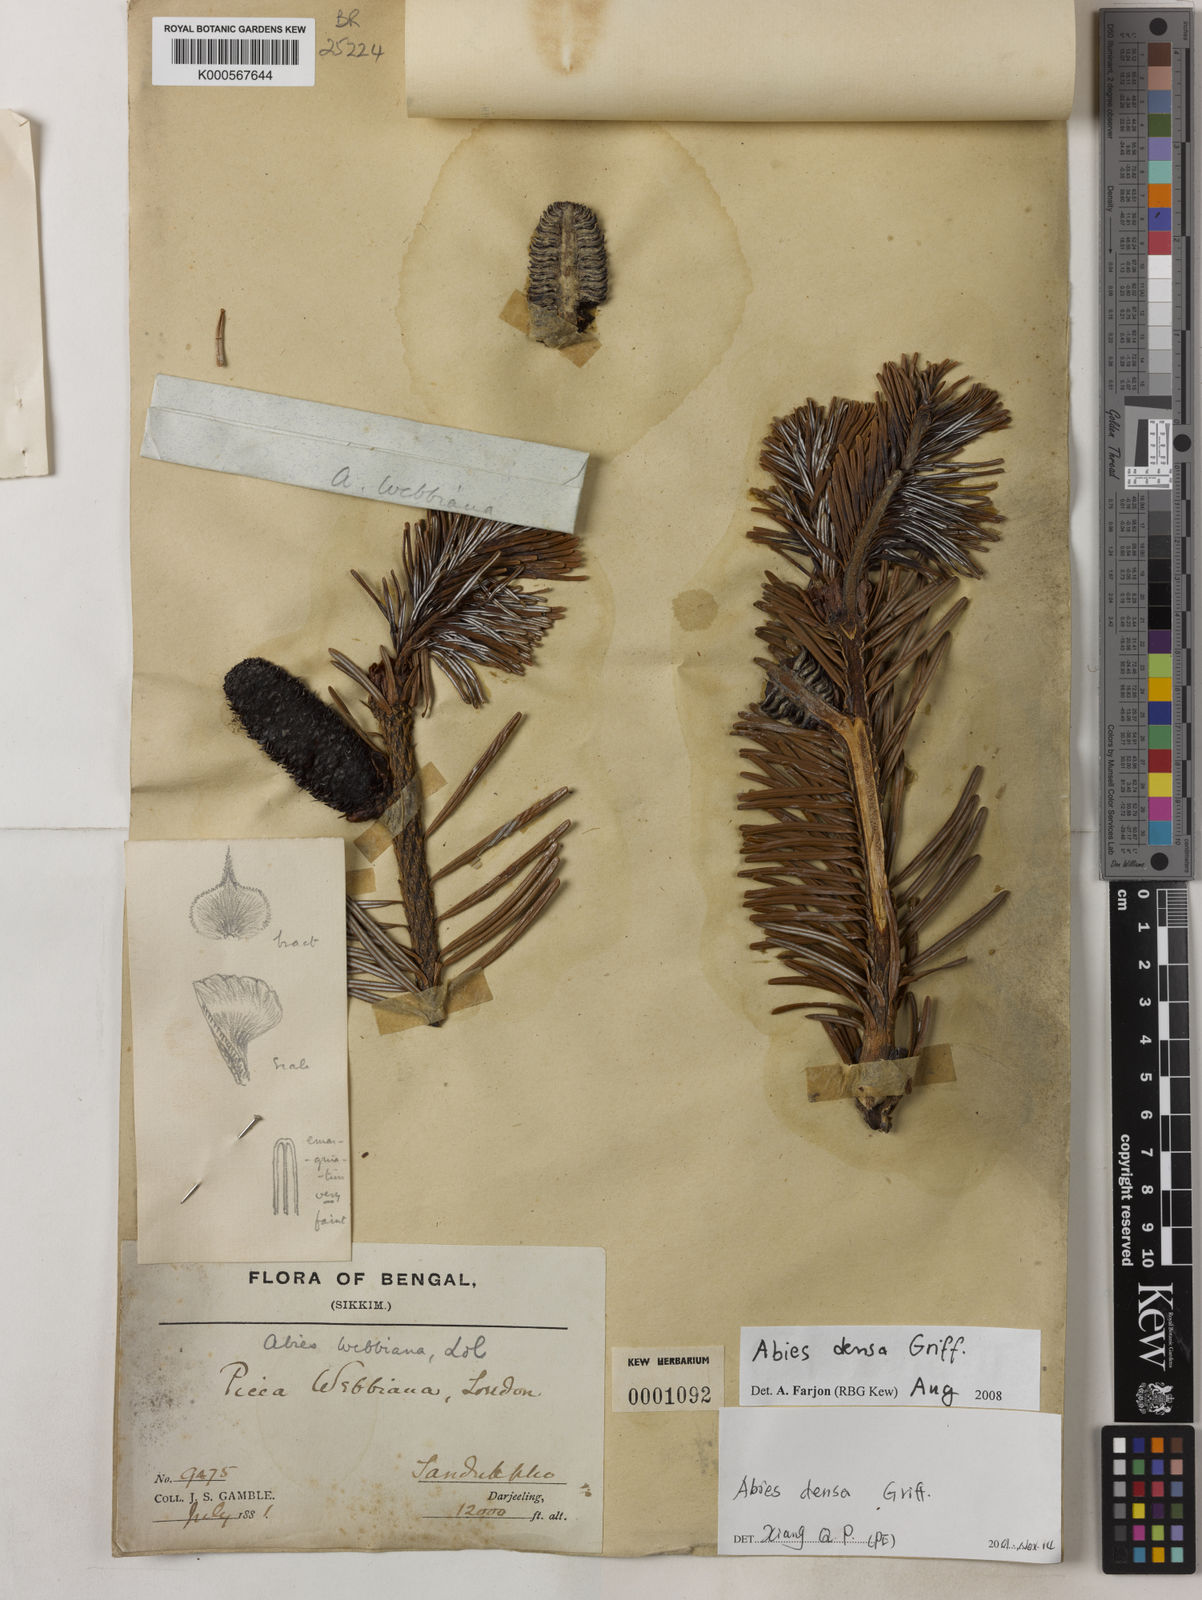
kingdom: Plantae
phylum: Tracheophyta
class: Pinopsida
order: Pinales
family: Pinaceae
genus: Abies
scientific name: Abies densa
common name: Sikkim fir
